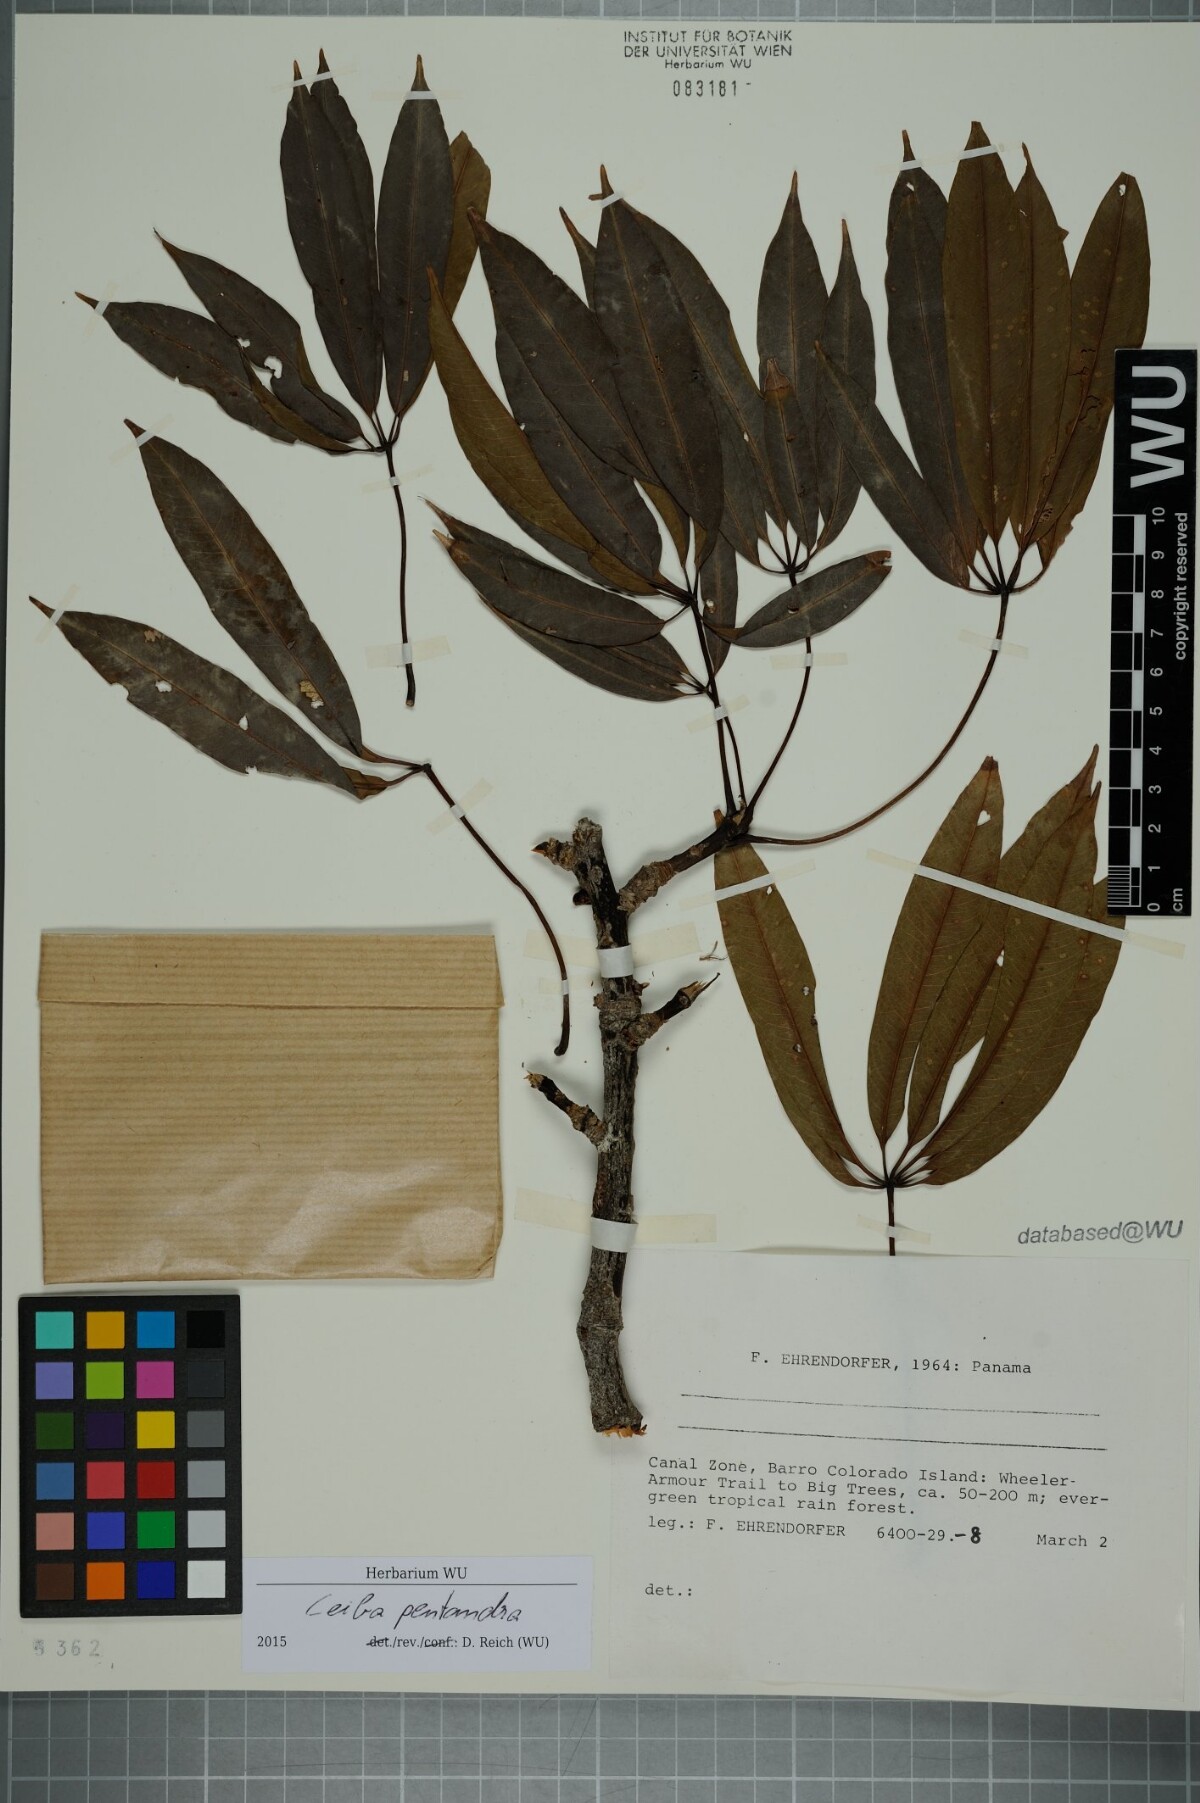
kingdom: Plantae
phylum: Tracheophyta
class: Magnoliopsida
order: Malvales
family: Malvaceae
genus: Ceiba
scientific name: Ceiba pentandra
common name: Kapok
